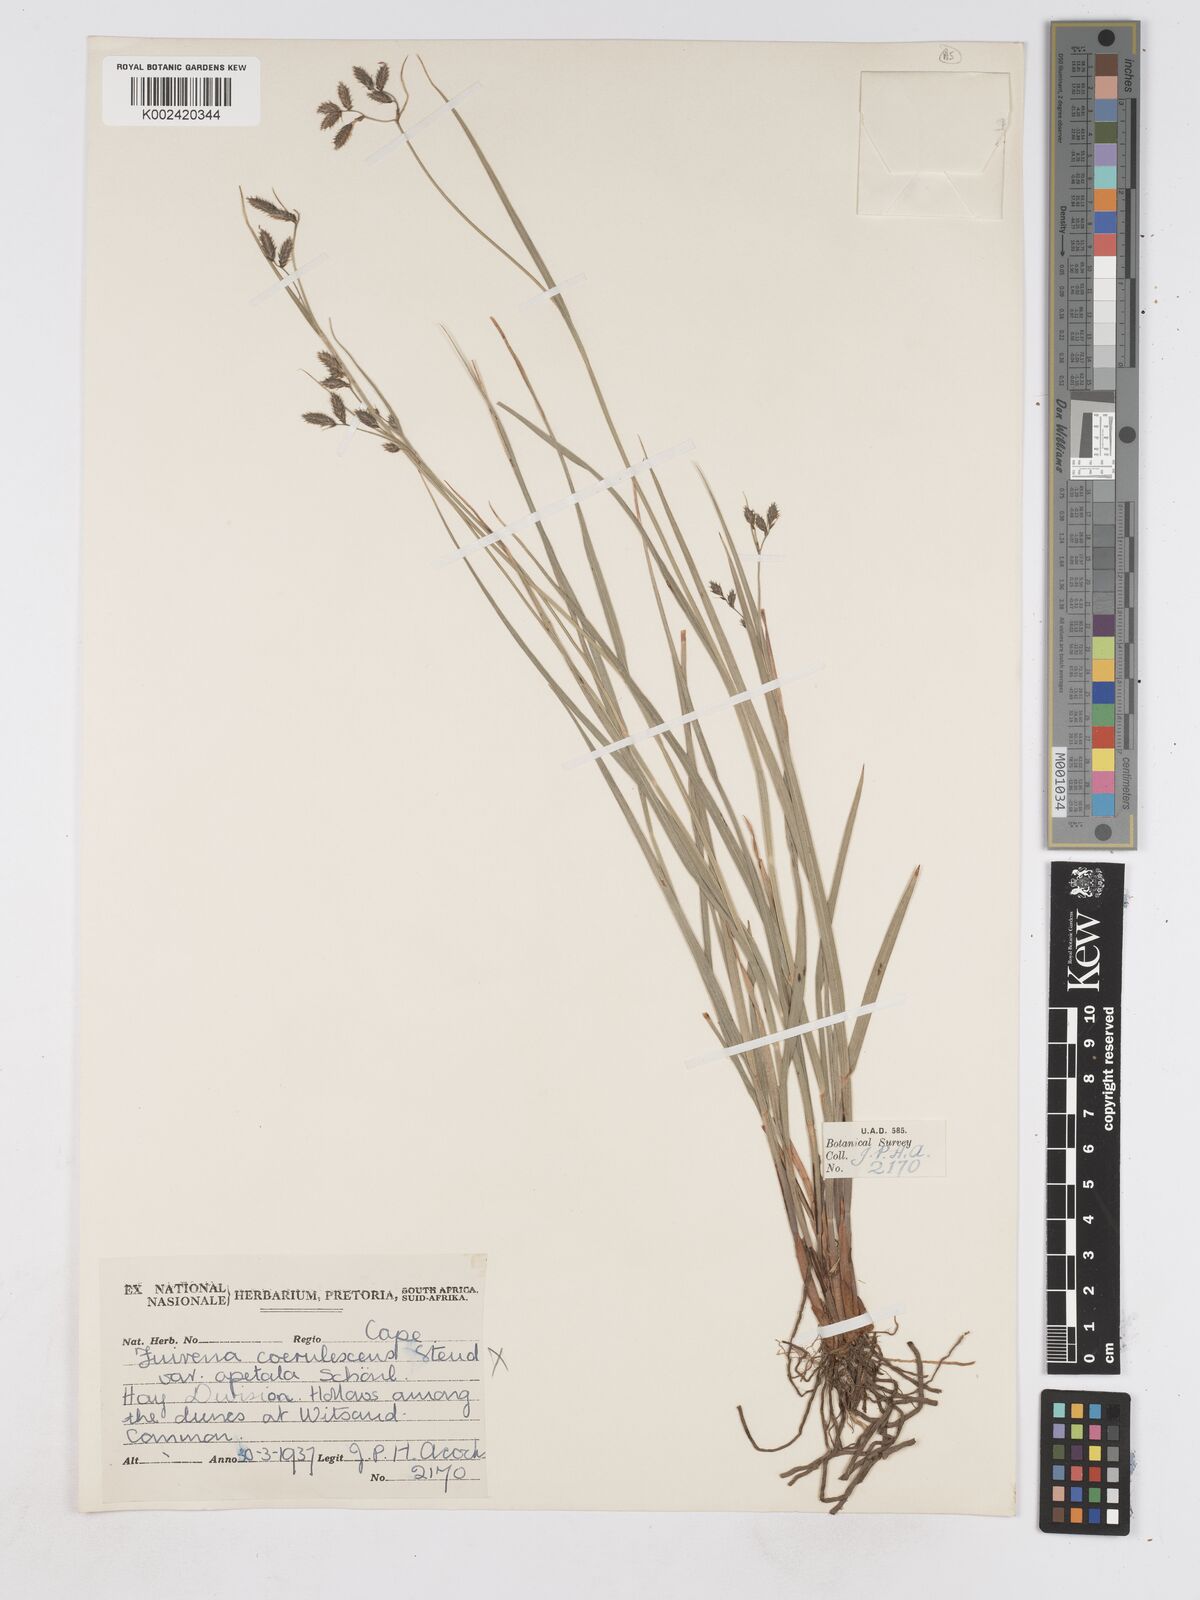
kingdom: Plantae
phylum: Tracheophyta
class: Liliopsida
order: Poales
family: Cyperaceae
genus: Fuirena
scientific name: Fuirena
